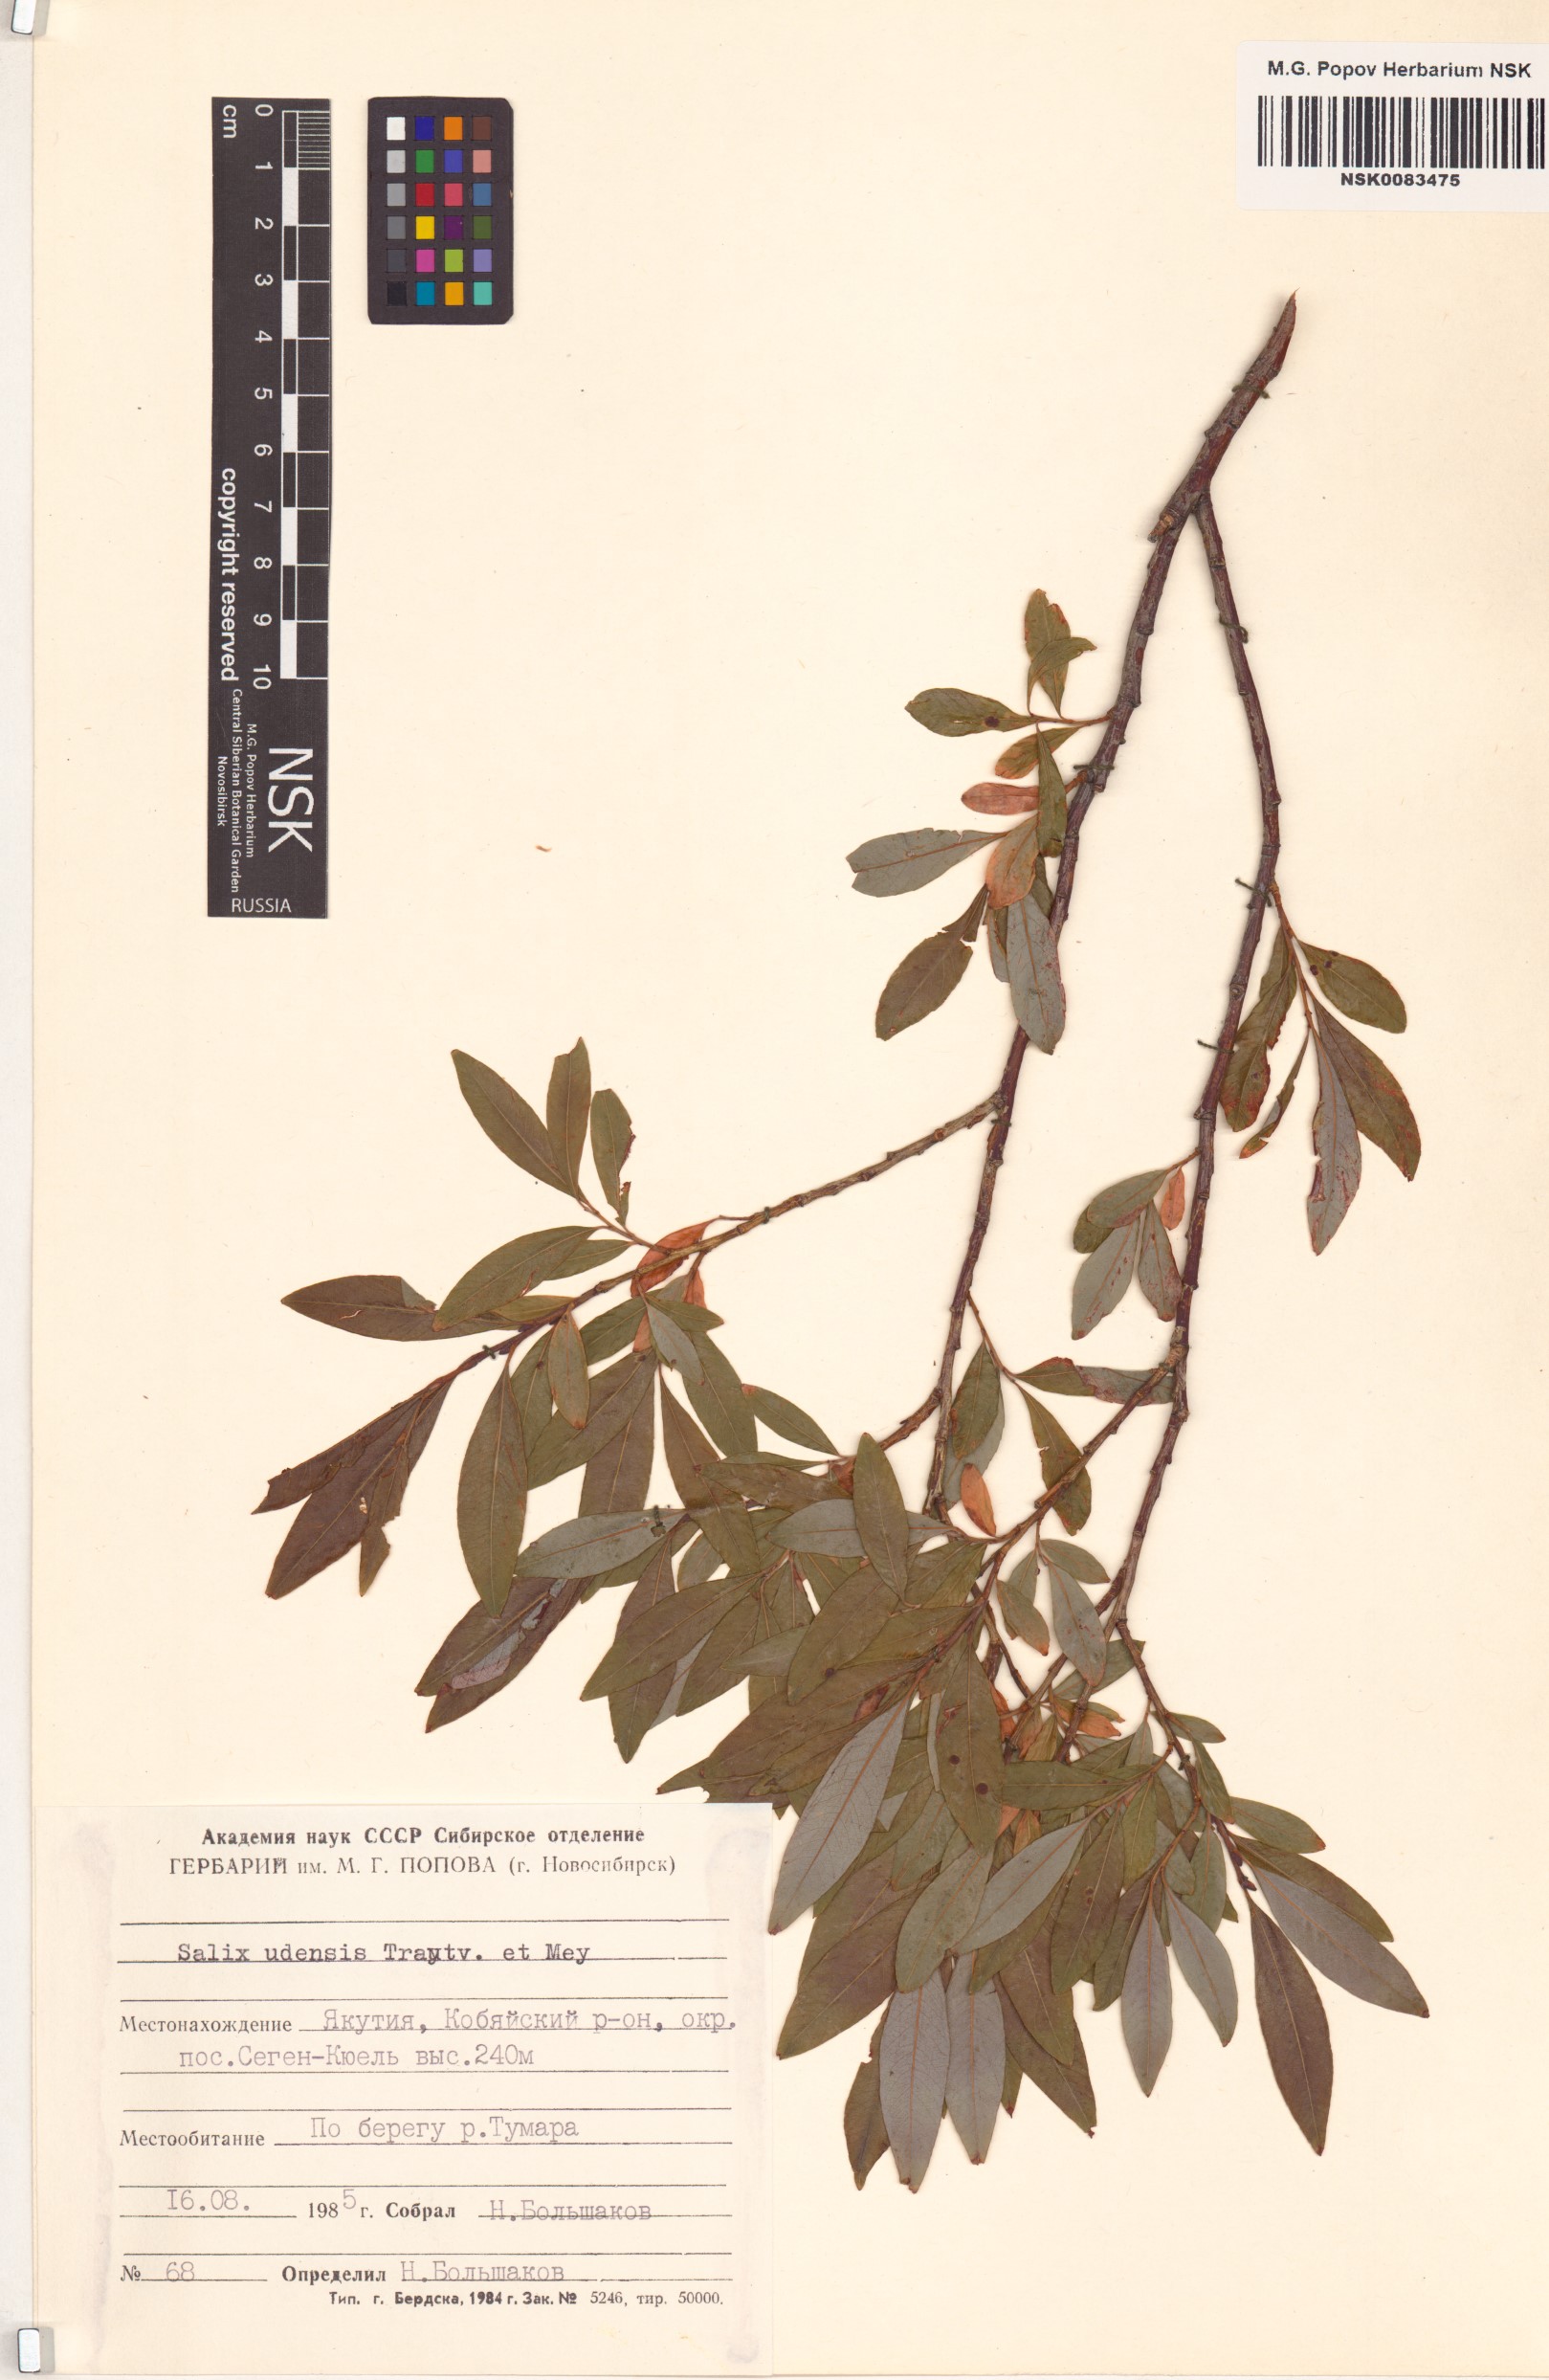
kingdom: Plantae
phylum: Tracheophyta
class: Magnoliopsida
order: Malpighiales
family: Salicaceae
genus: Salix
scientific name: Salix udensis
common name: Sachalin willow
